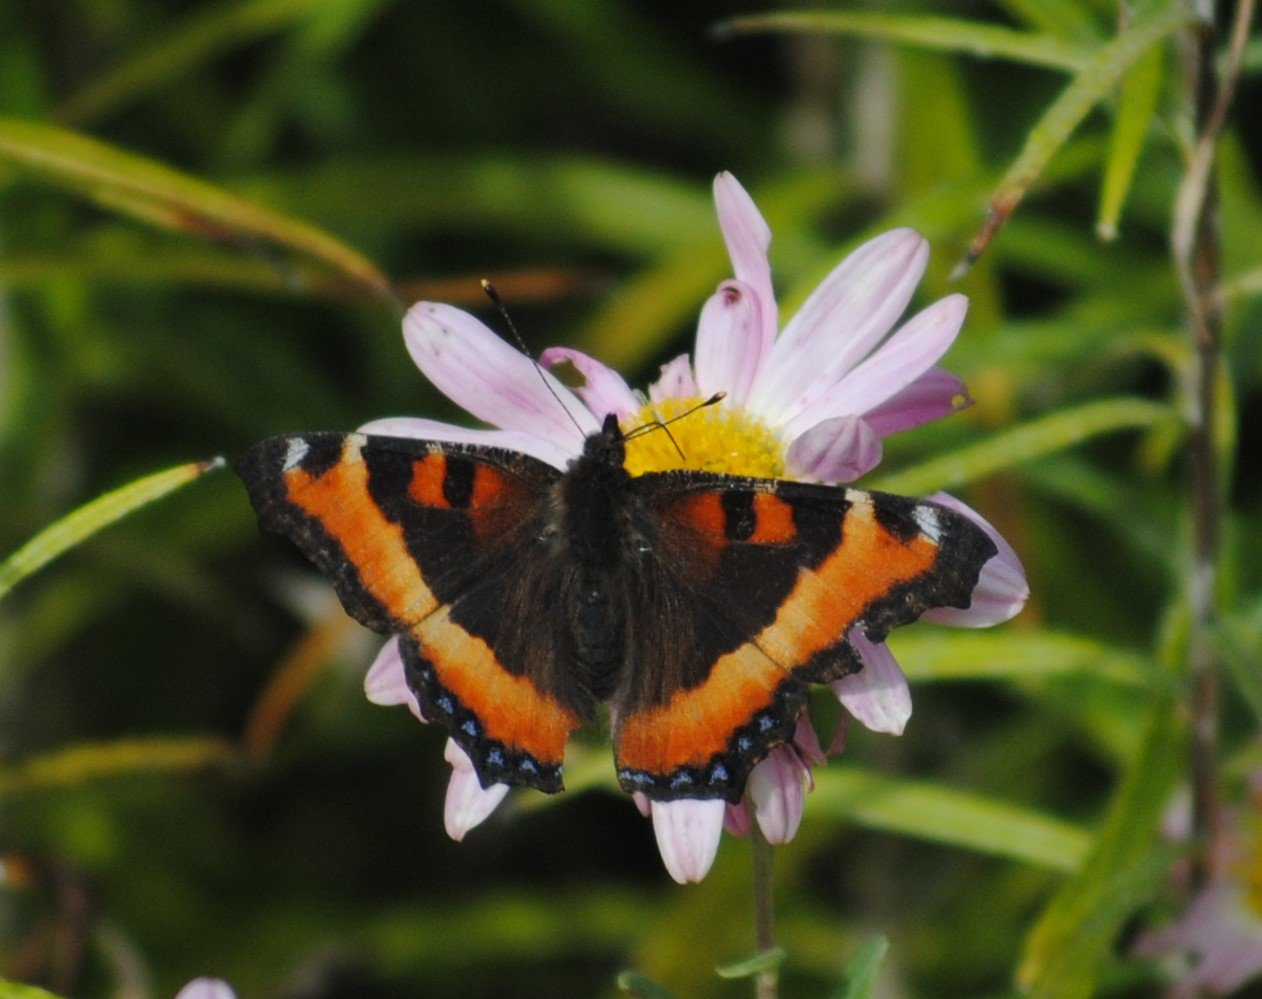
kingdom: Animalia
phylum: Arthropoda
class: Insecta
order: Lepidoptera
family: Nymphalidae
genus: Aglais
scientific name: Aglais milberti
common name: Milbert's Tortoiseshell
